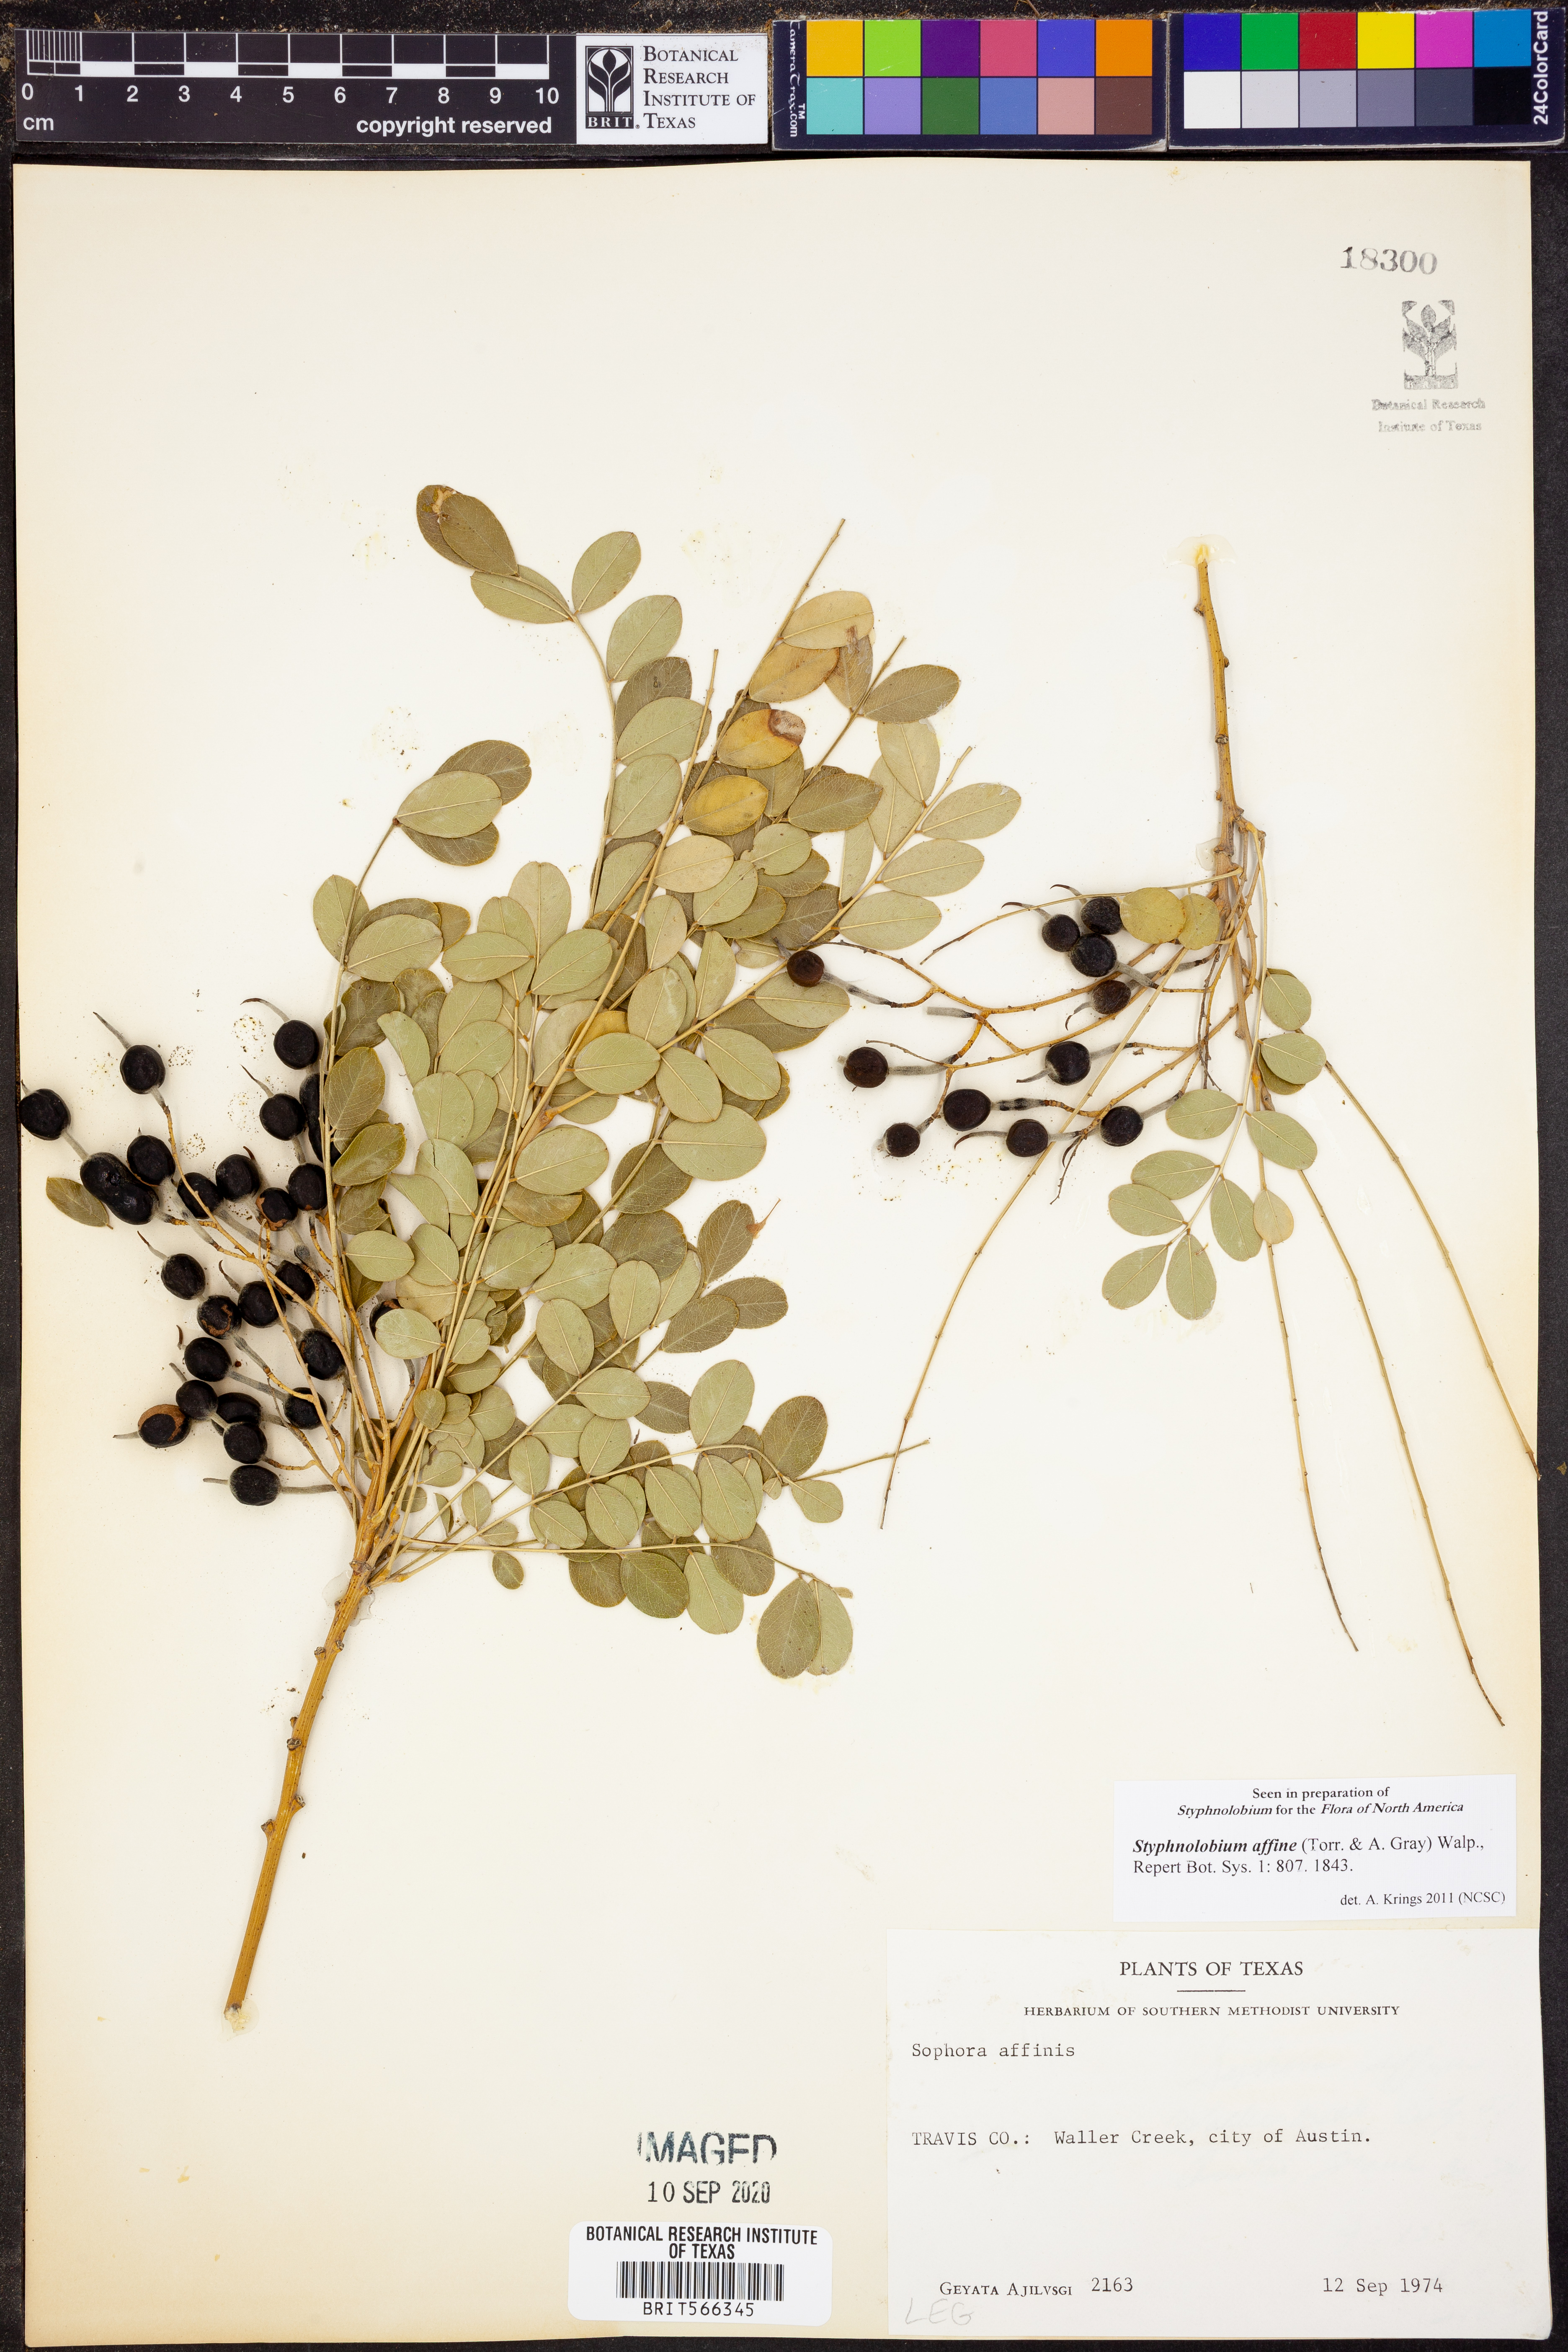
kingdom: Plantae
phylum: Tracheophyta
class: Magnoliopsida
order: Fabales
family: Fabaceae
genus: Styphnolobium
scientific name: Styphnolobium affine
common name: Texas sophora
